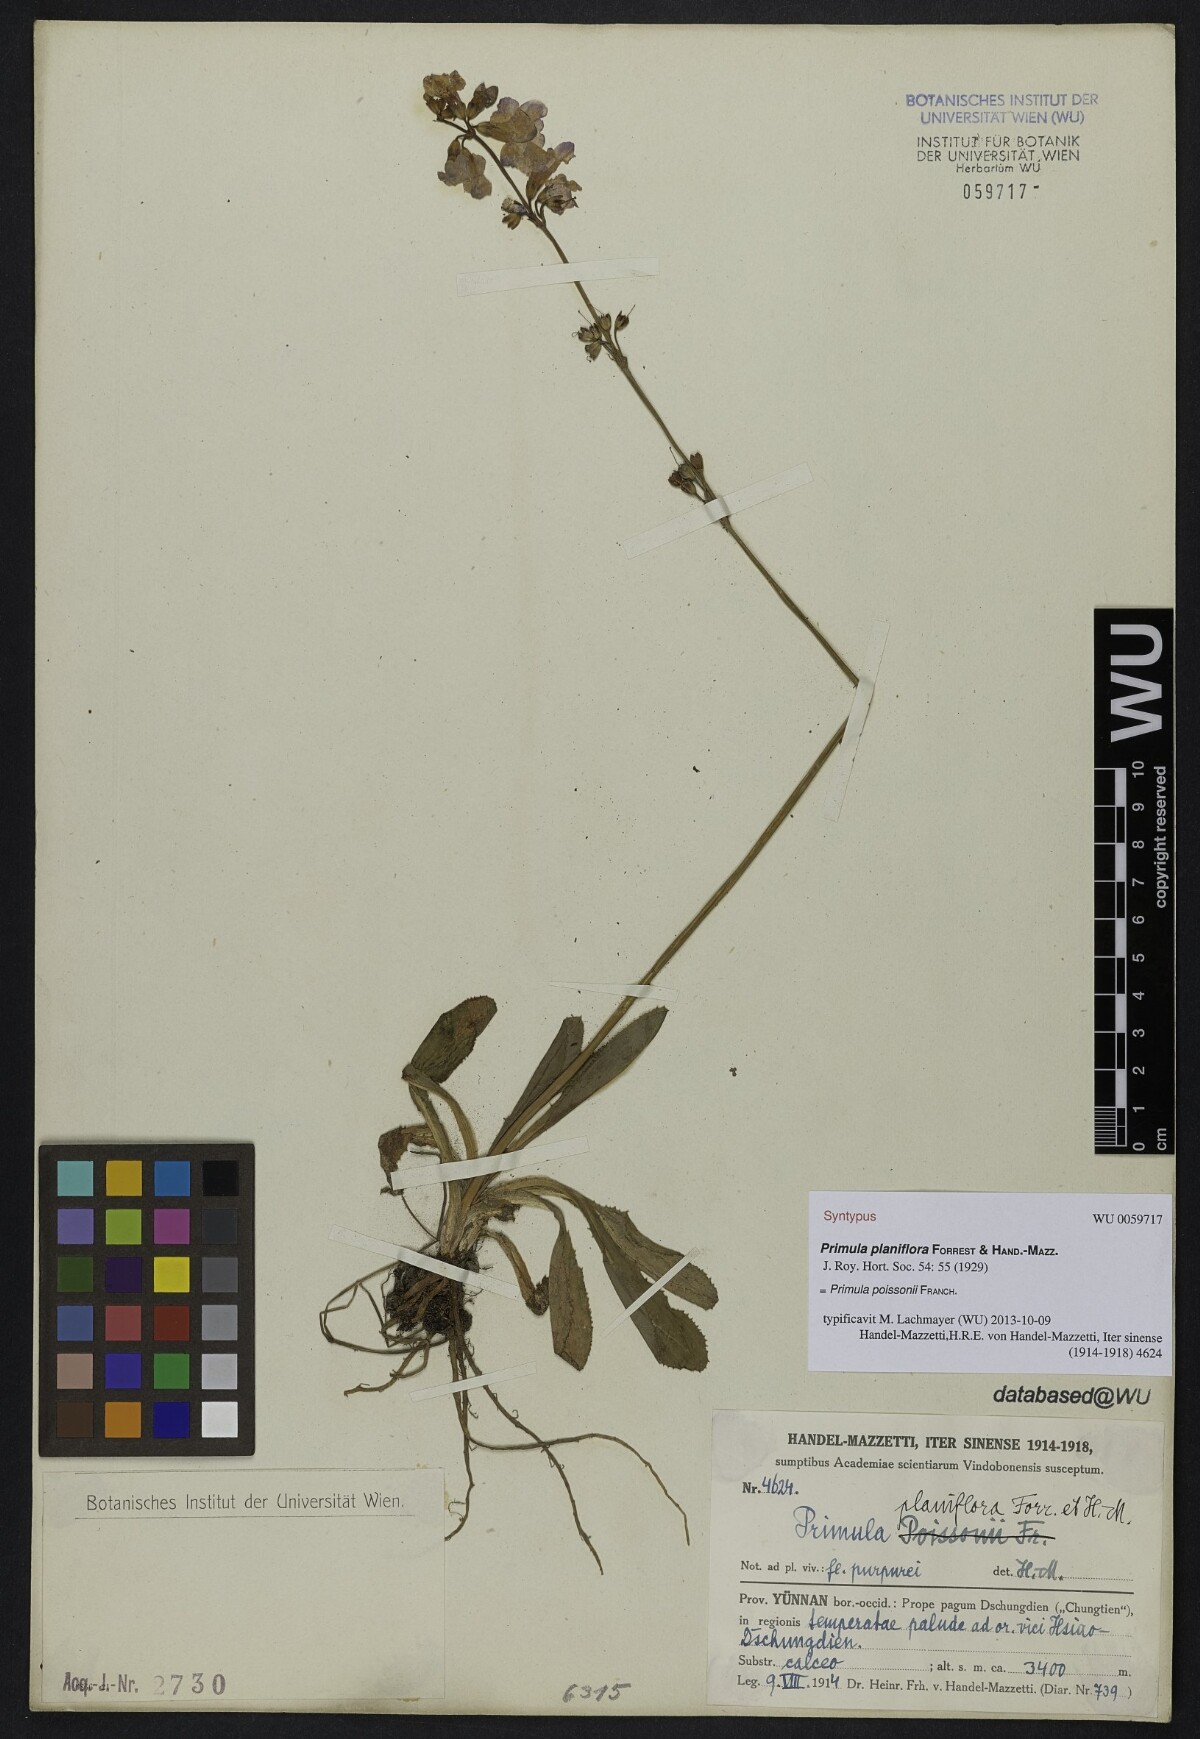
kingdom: Plantae
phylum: Tracheophyta
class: Magnoliopsida
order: Ericales
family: Primulaceae
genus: Primula
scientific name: Primula poissonii
